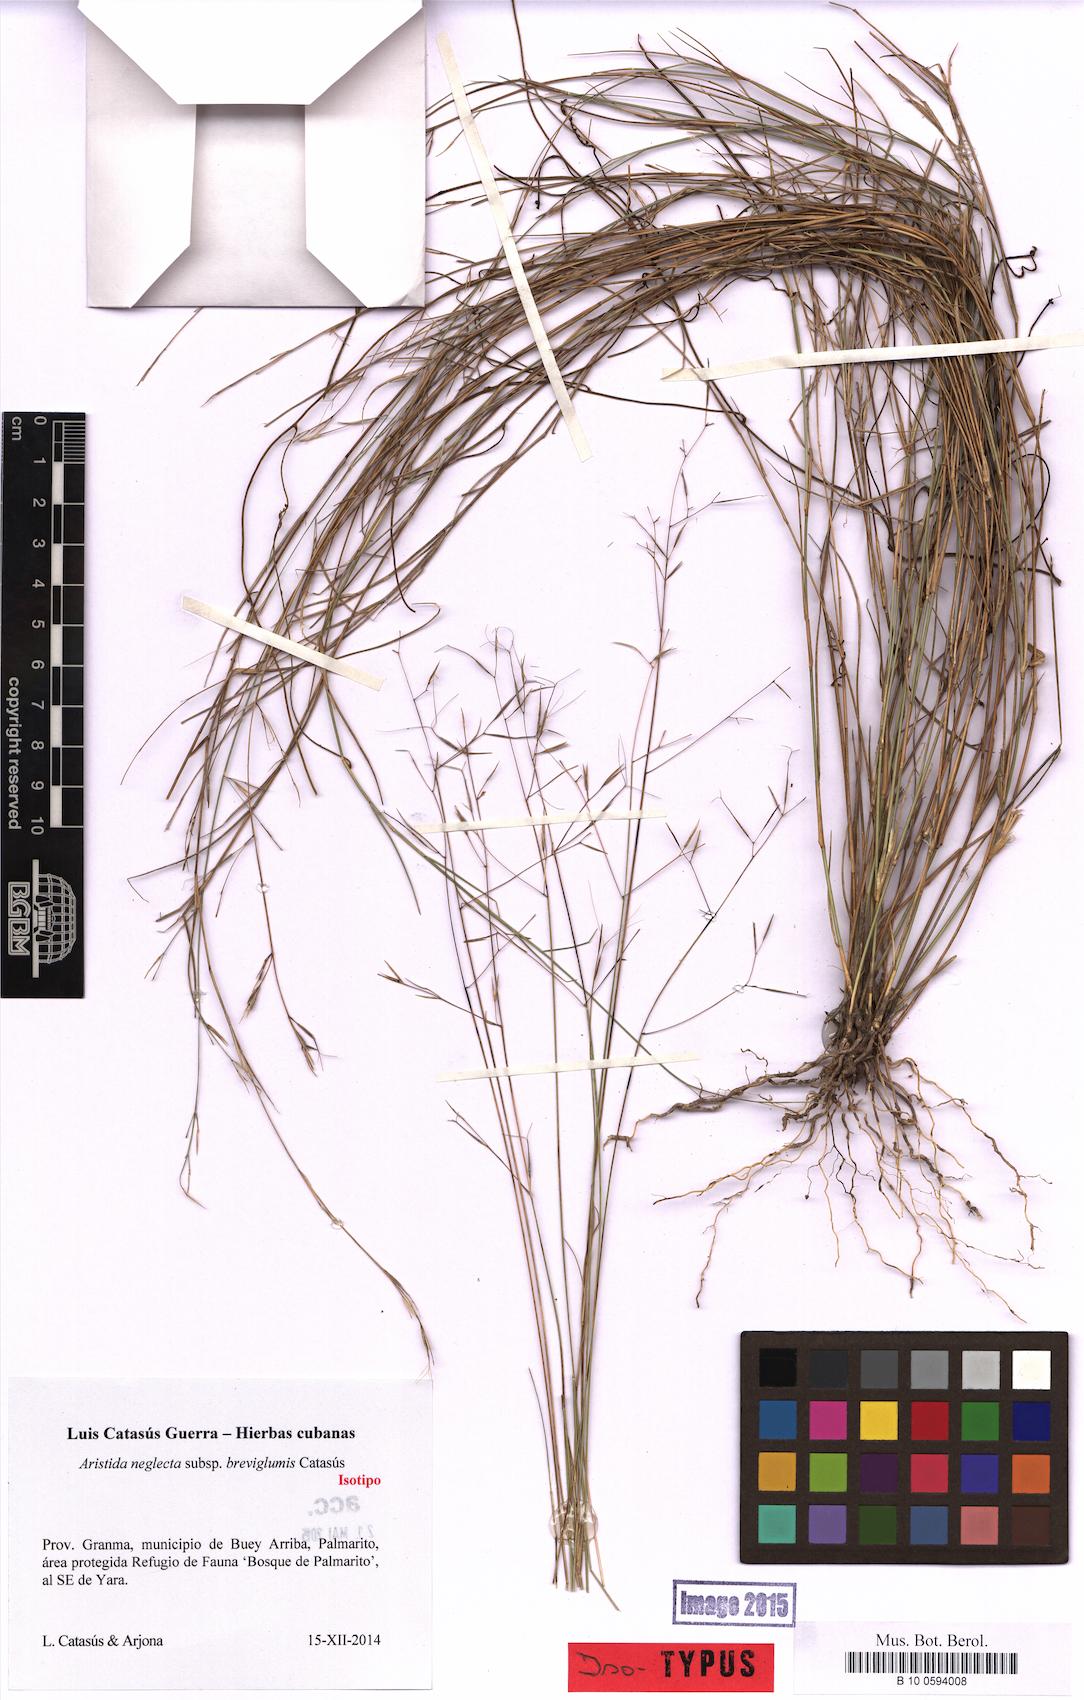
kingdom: Plantae
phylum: Tracheophyta
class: Liliopsida
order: Poales
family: Poaceae
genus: Aristida
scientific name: Aristida neglecta
